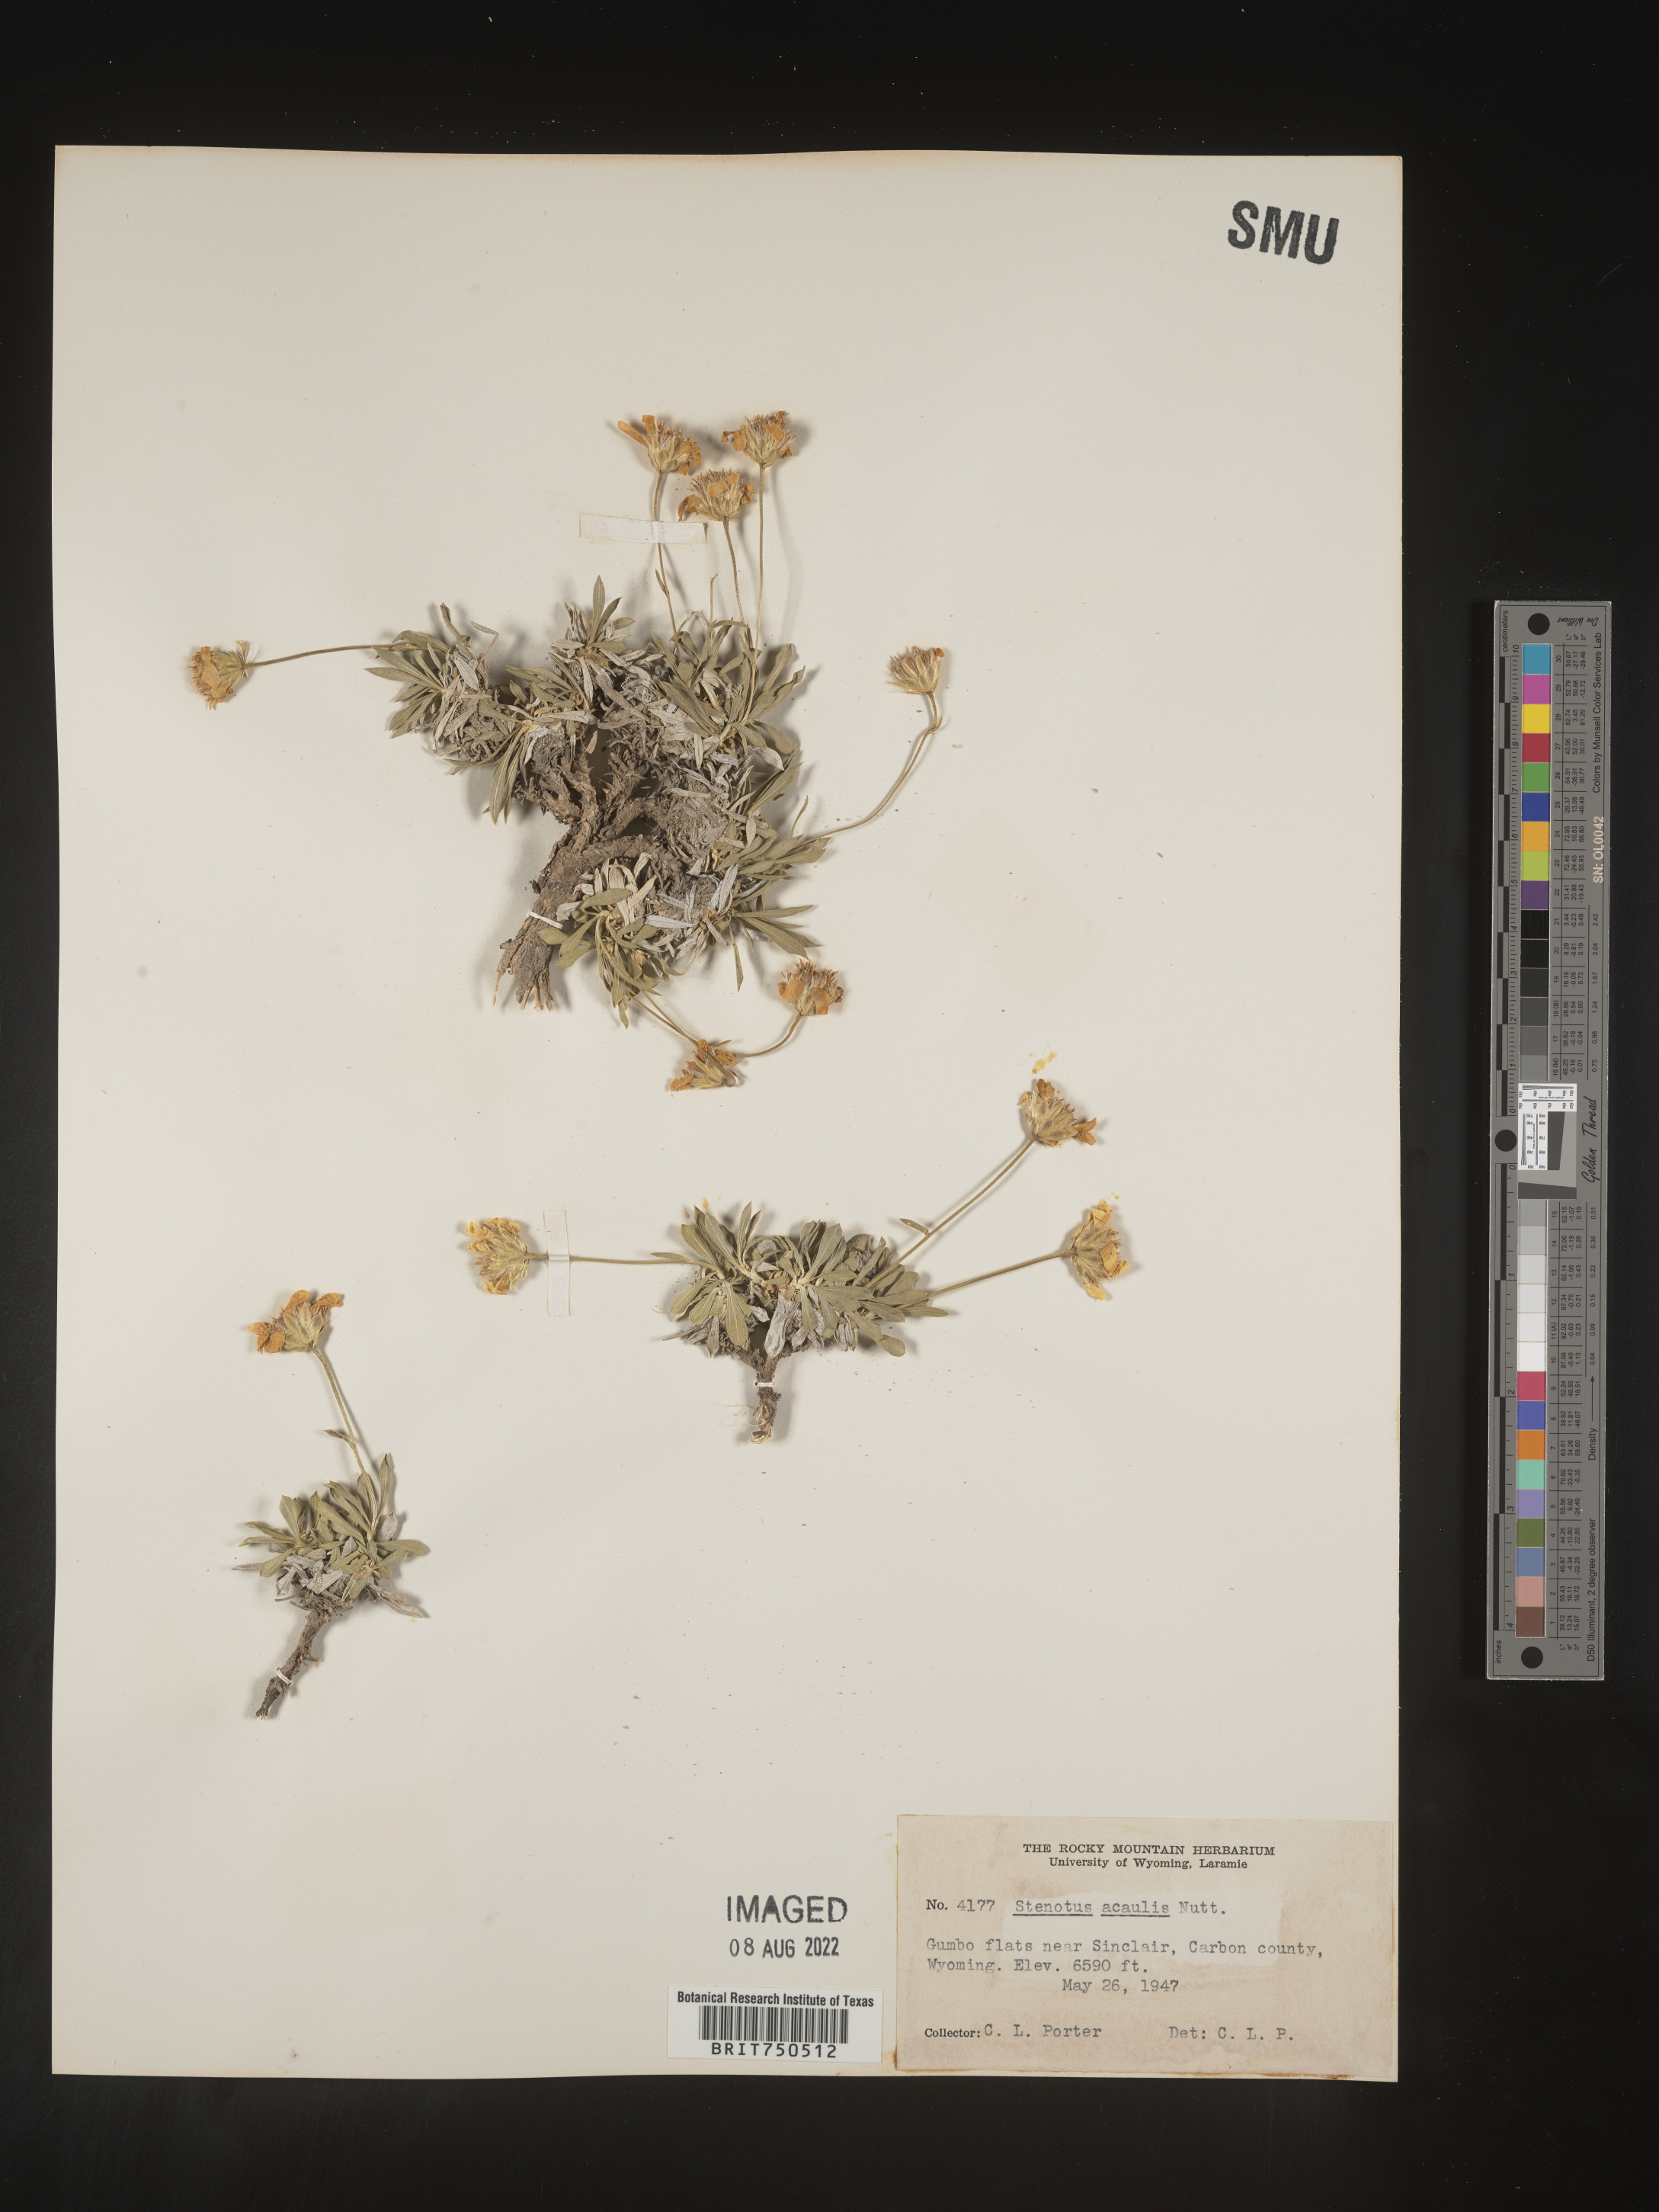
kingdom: Plantae
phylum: Tracheophyta
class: Magnoliopsida
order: Asterales
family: Asteraceae
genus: Stenotus
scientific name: Stenotus acaulis
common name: Stemless goldenweed
